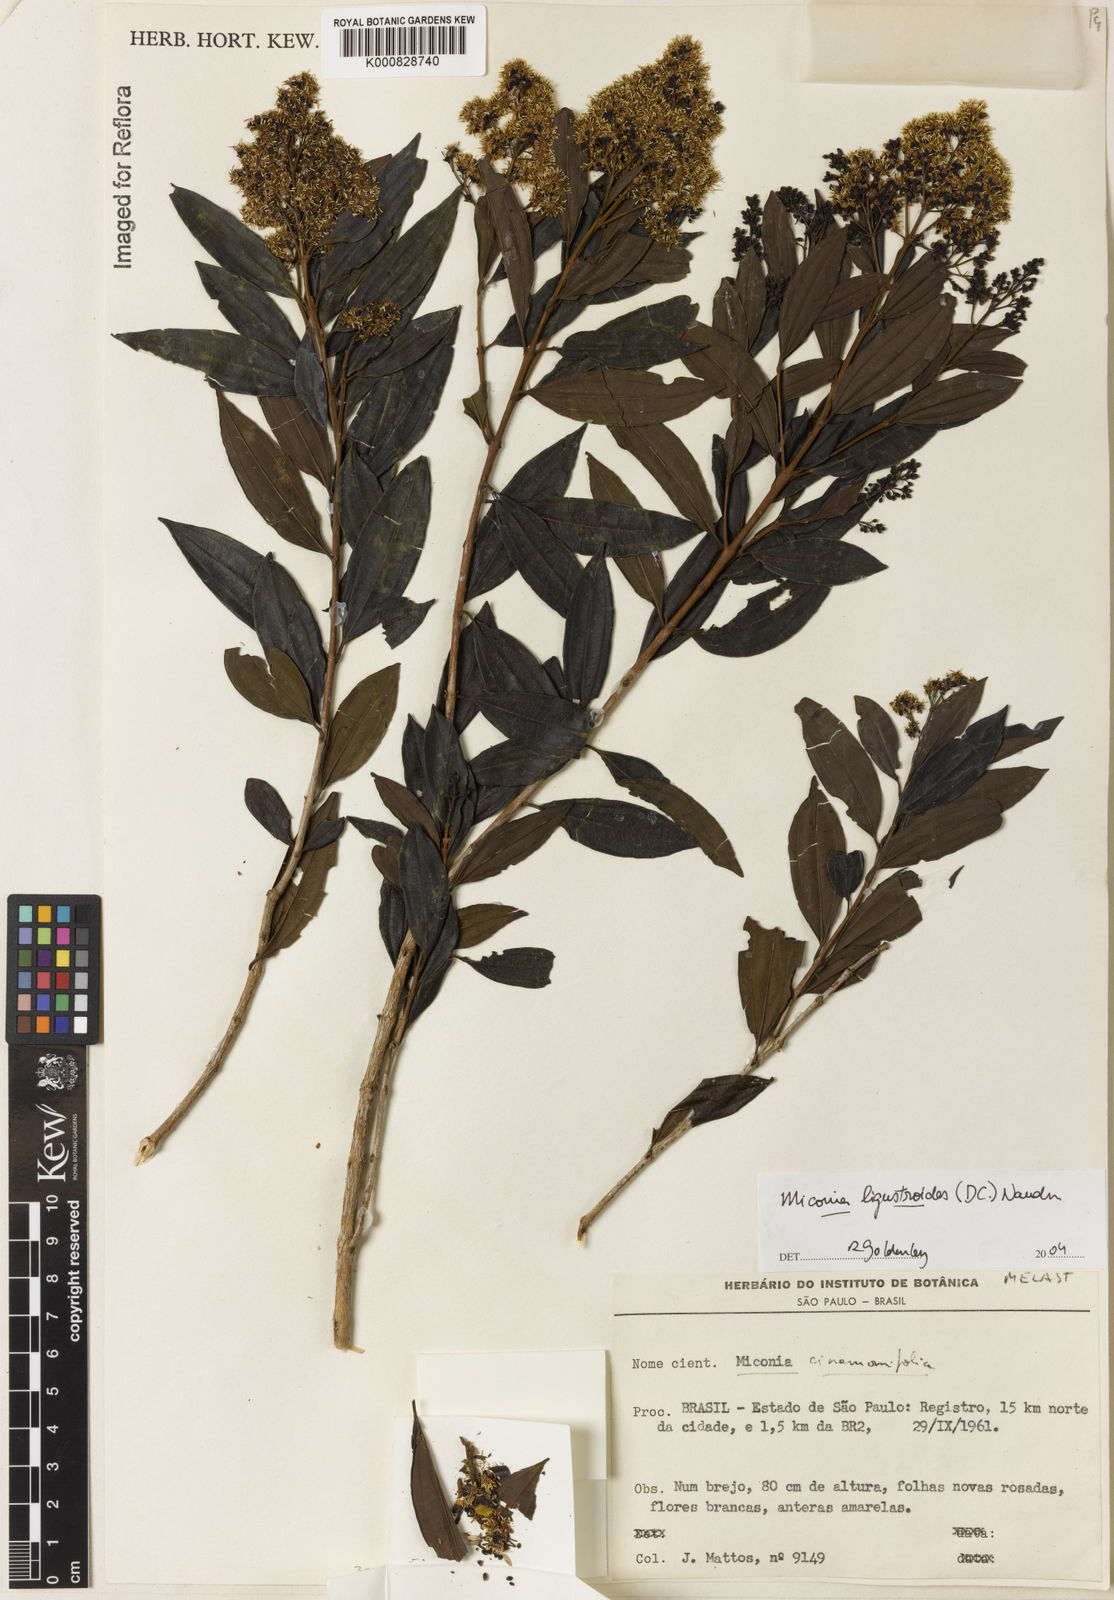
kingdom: Plantae
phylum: Tracheophyta
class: Magnoliopsida
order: Myrtales
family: Melastomataceae
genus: Miconia
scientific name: Miconia ligustroides
